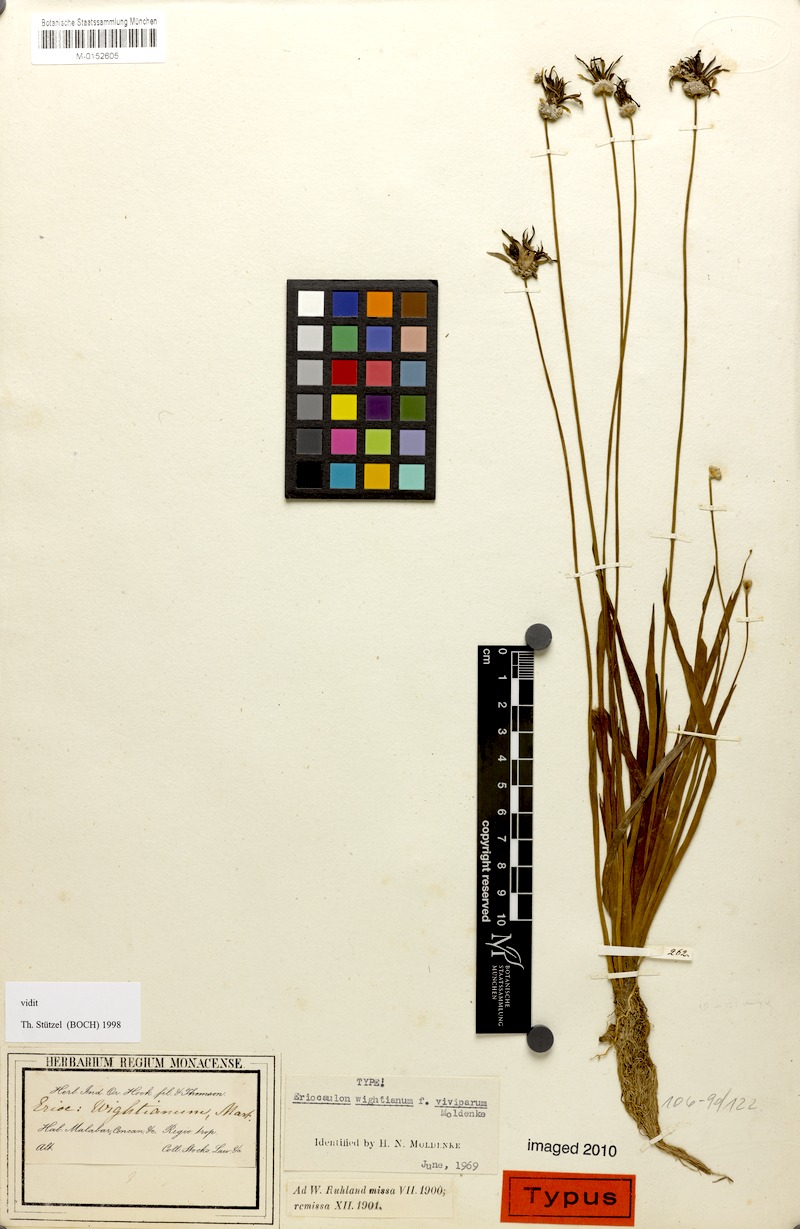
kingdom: Plantae
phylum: Tracheophyta
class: Liliopsida
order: Poales
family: Eriocaulaceae
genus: Eriocaulon
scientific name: Eriocaulon wightianum
